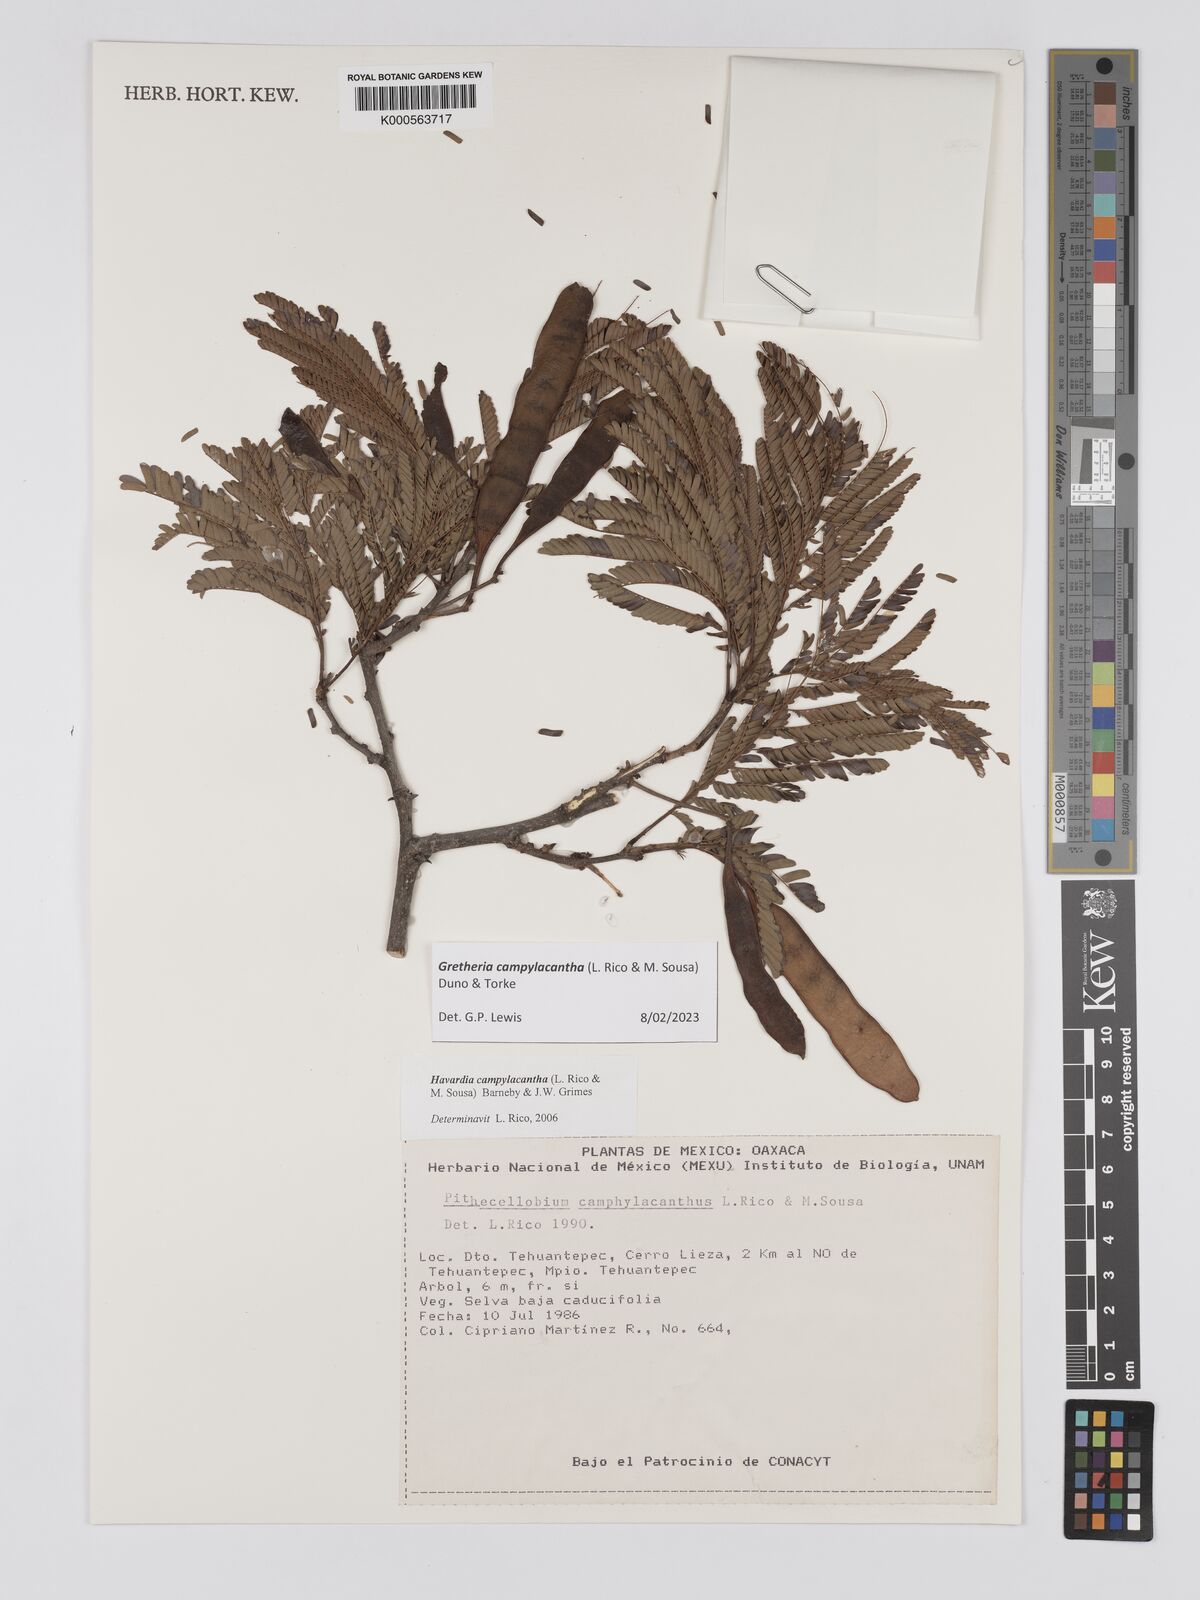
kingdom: Plantae
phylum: Tracheophyta
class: Magnoliopsida
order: Fabales
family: Fabaceae
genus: Havardia
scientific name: Havardia campylacantha
